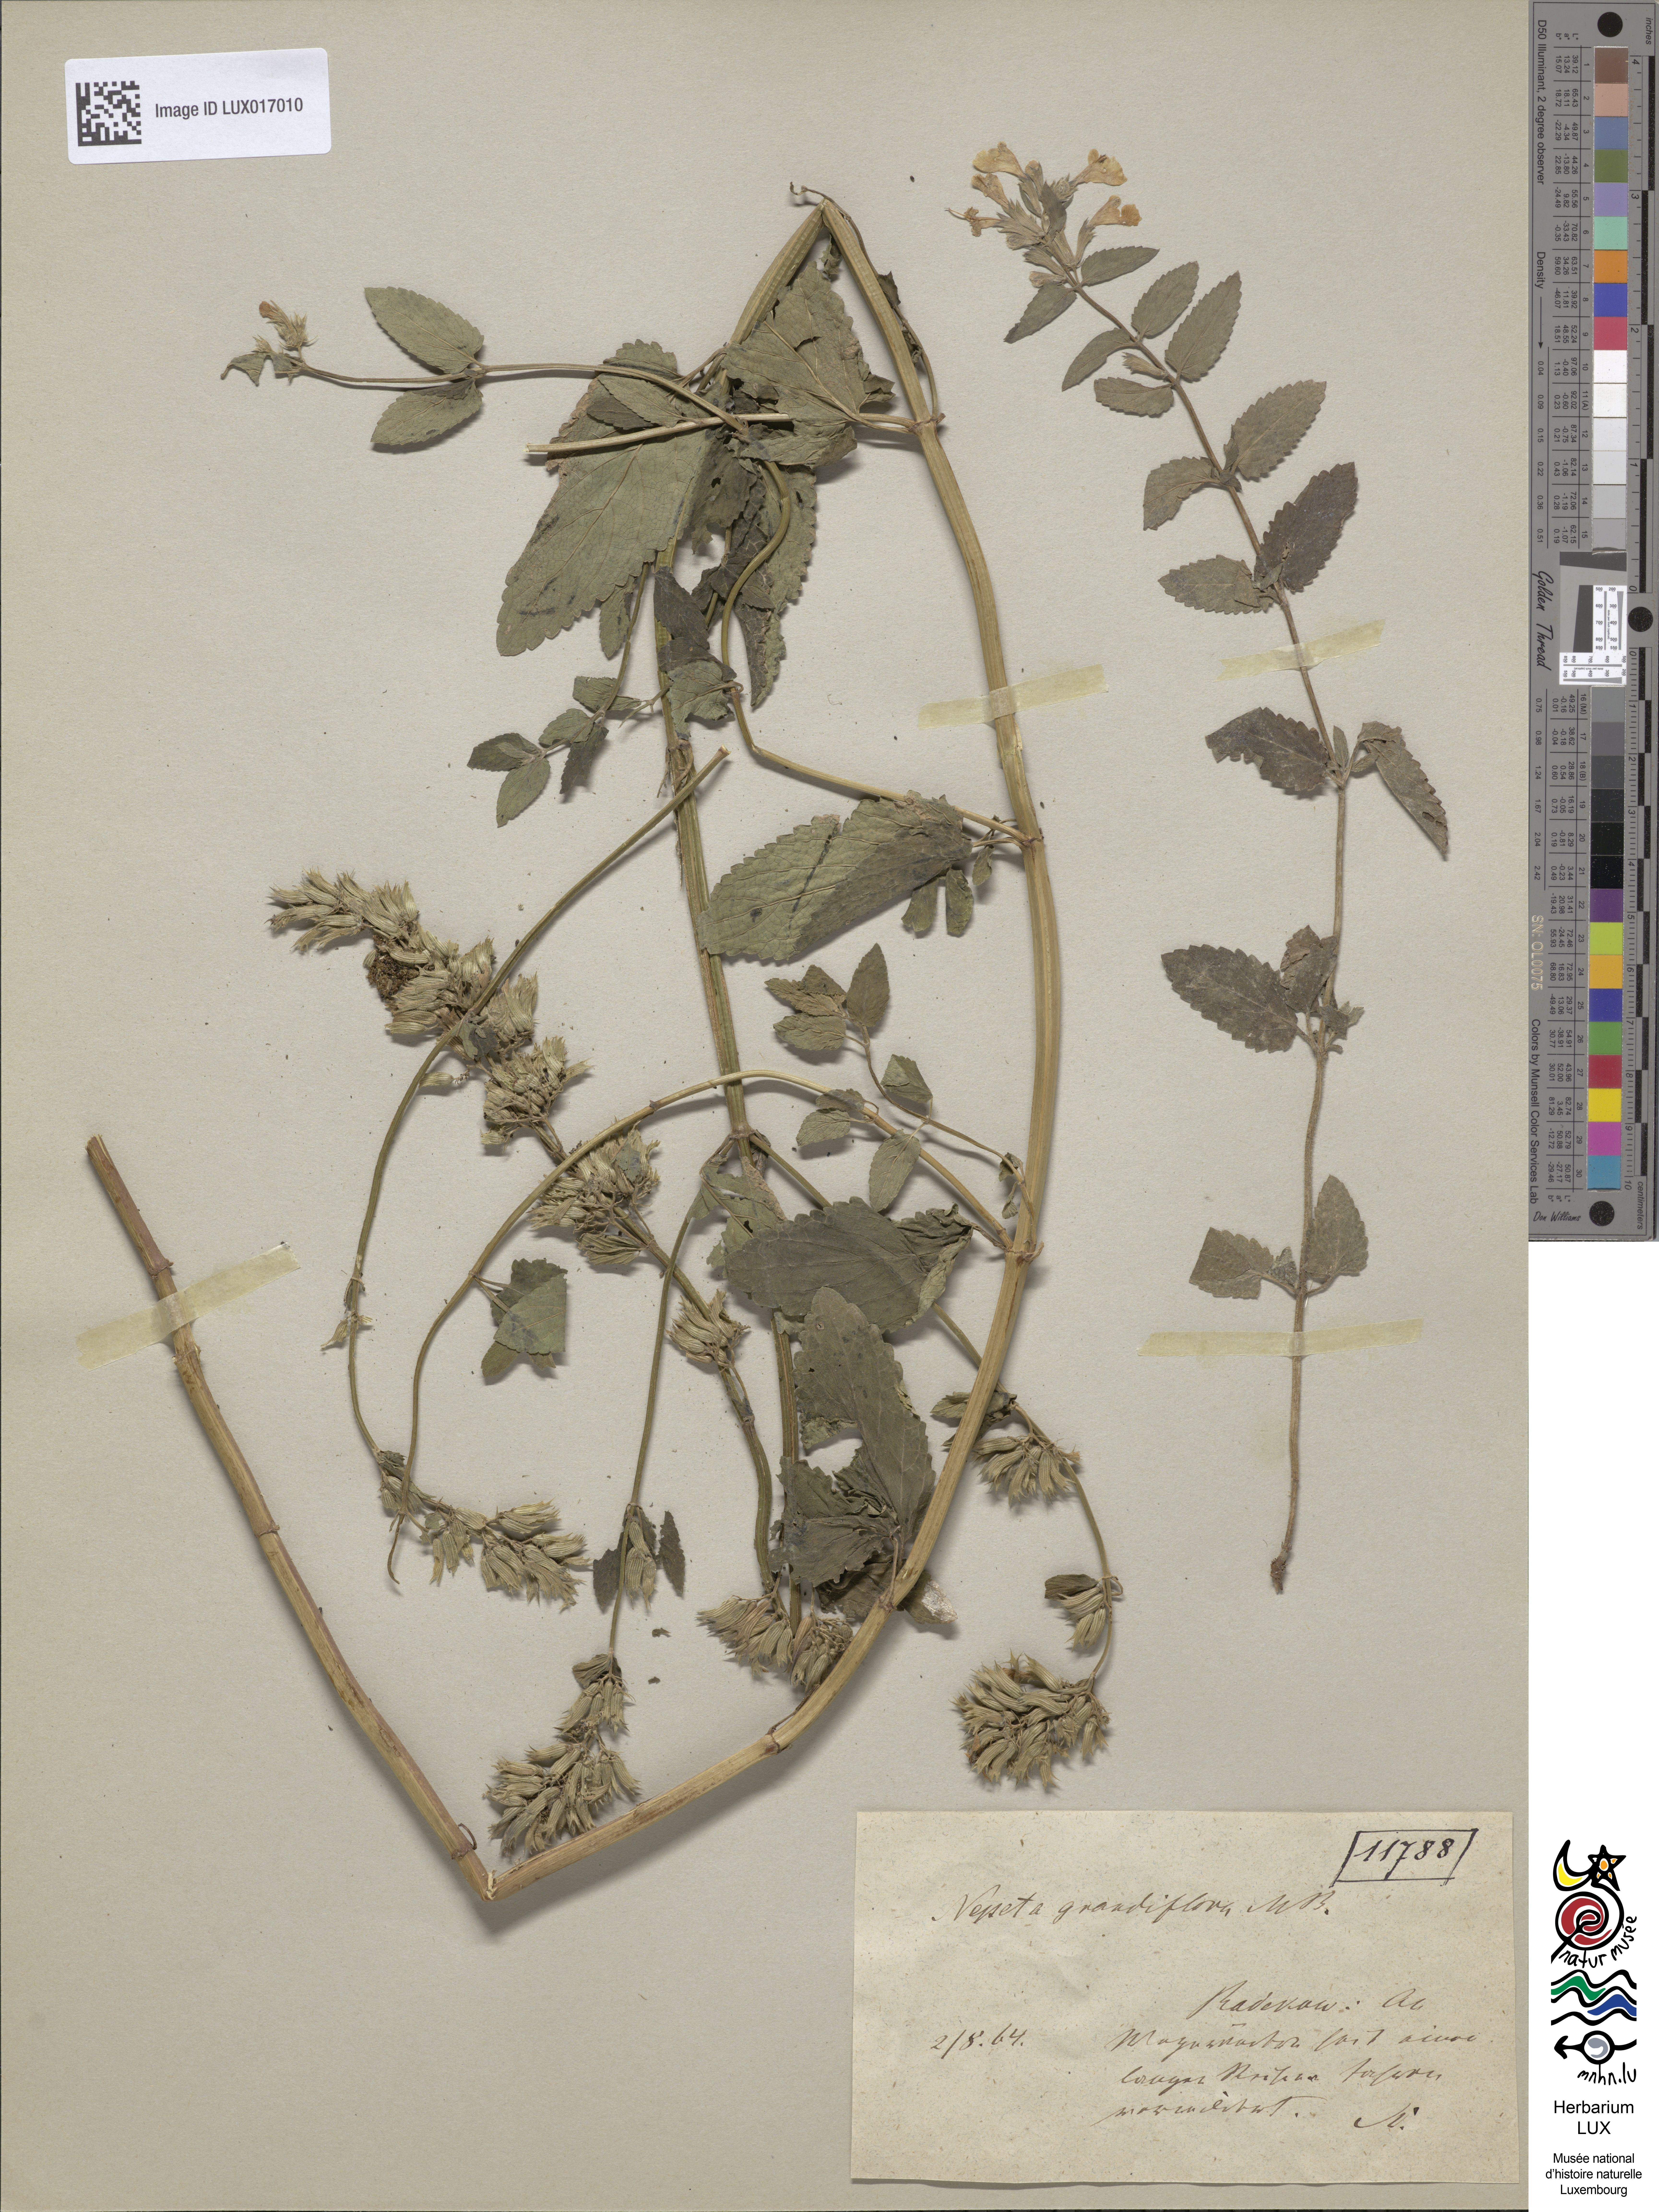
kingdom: Plantae
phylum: Tracheophyta
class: Magnoliopsida
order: Lamiales
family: Lamiaceae
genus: Nepeta
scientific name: Nepeta grandiflora
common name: Caucasus catmint
